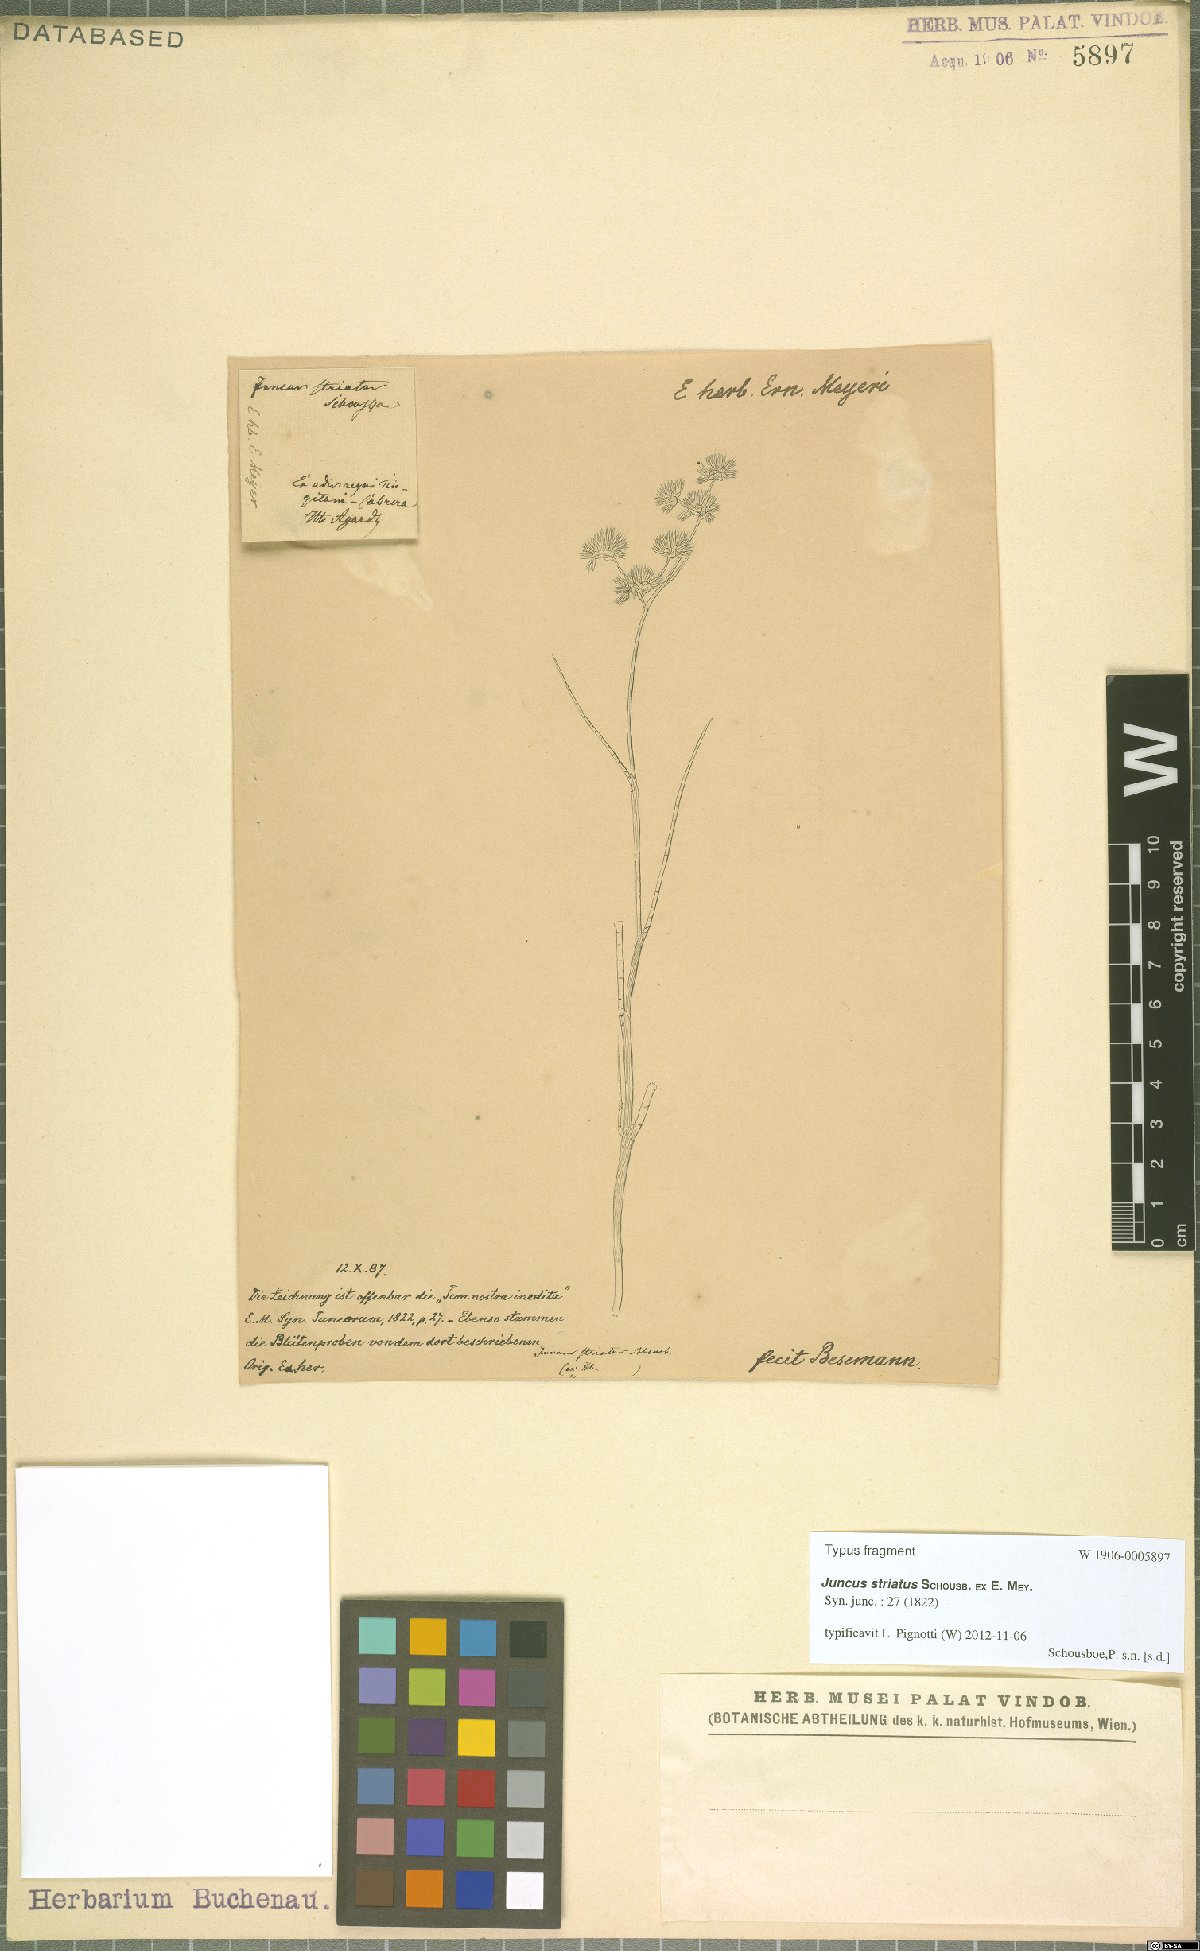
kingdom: Plantae
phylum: Tracheophyta
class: Liliopsida
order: Poales
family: Juncaceae
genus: Juncus
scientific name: Juncus striatus
